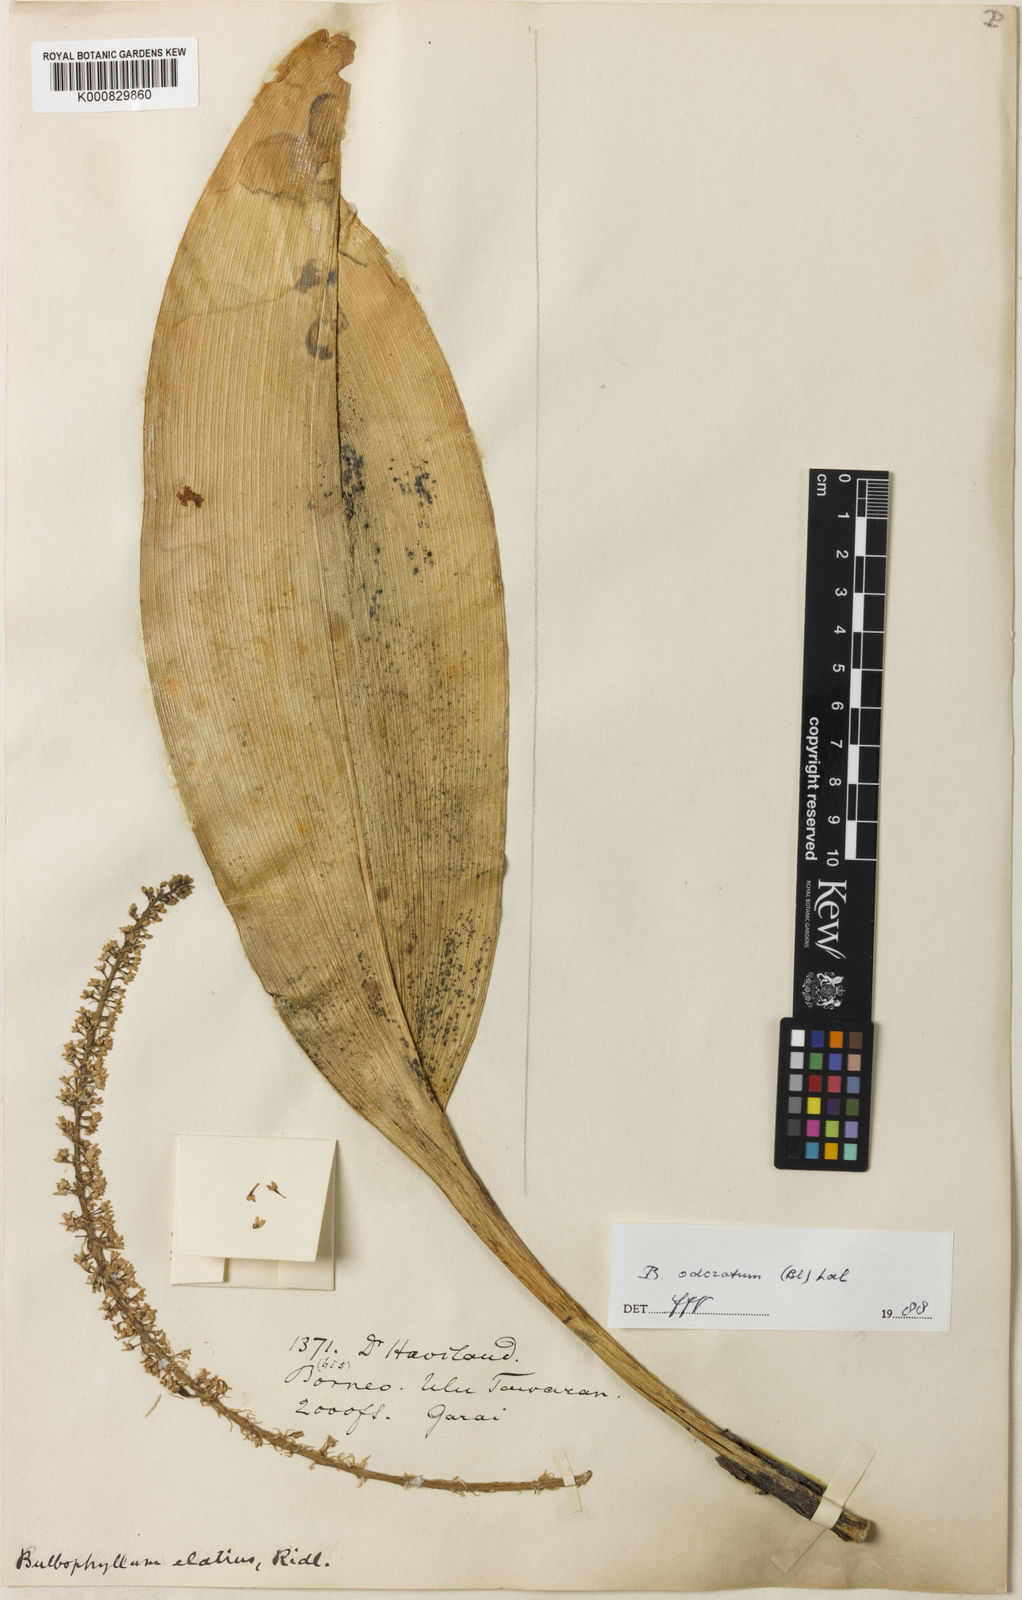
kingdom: Plantae
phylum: Tracheophyta
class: Liliopsida
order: Asparagales
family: Orchidaceae
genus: Bulbophyllum
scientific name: Bulbophyllum odoratum
